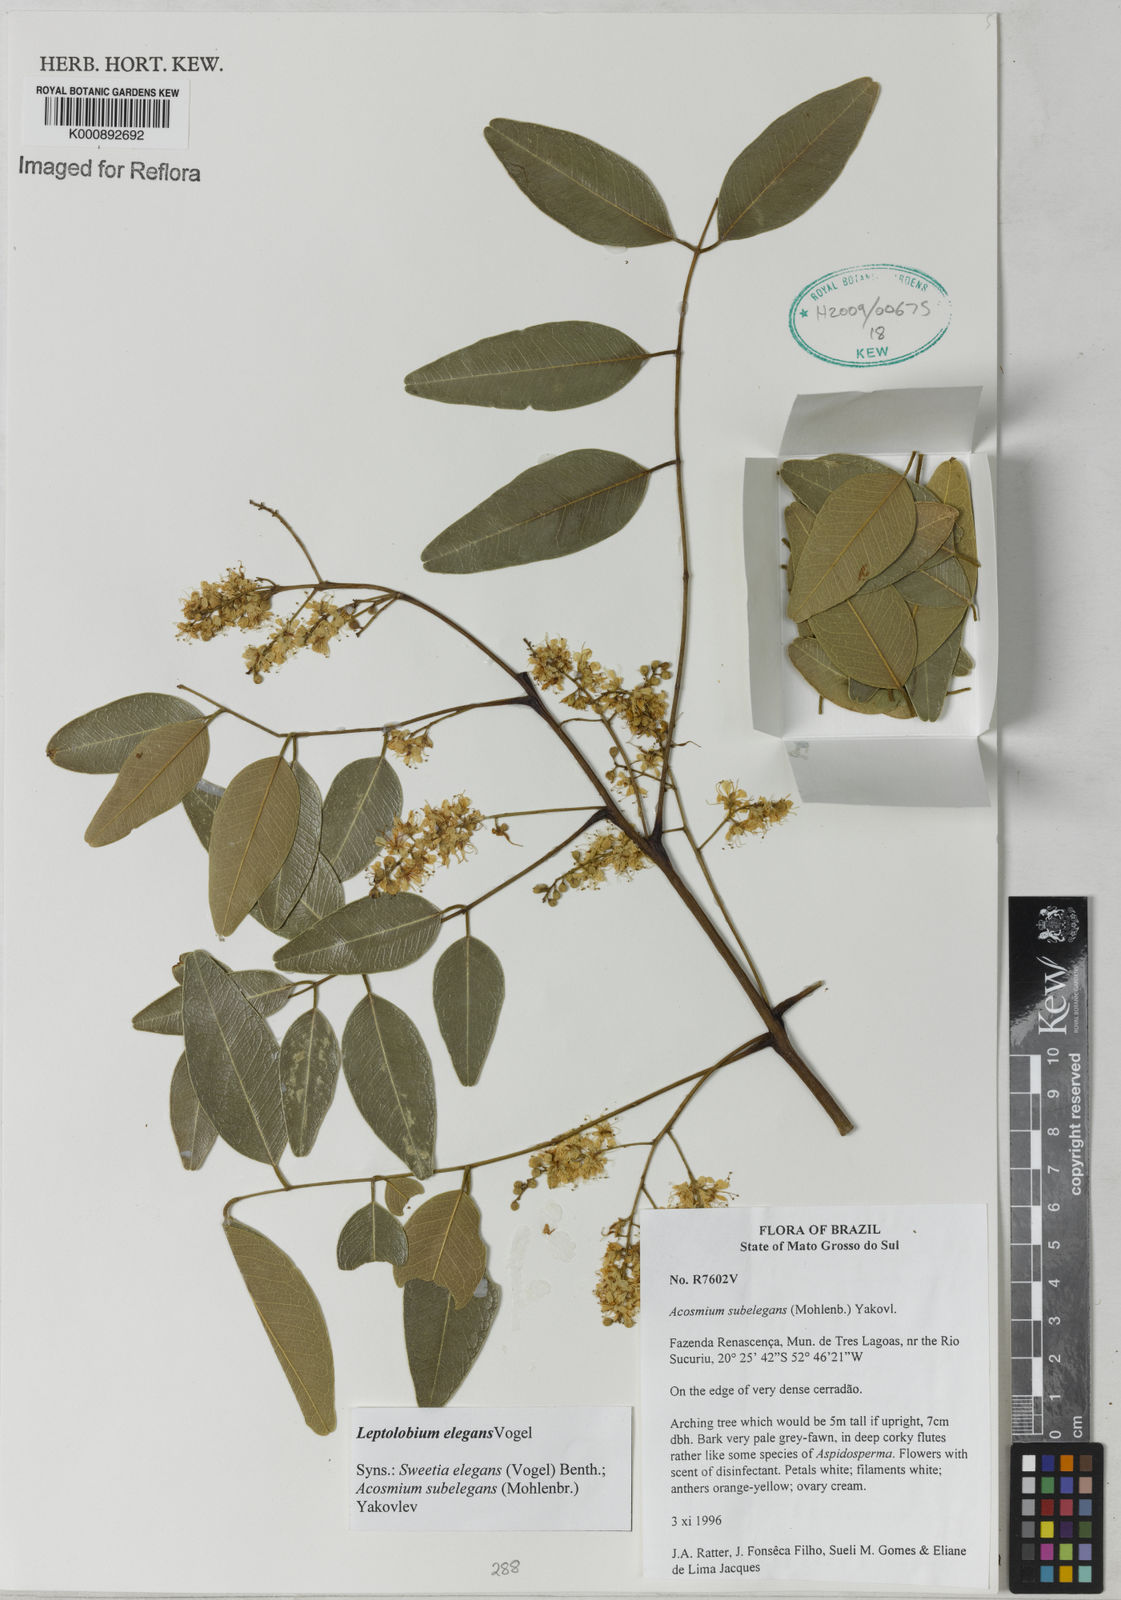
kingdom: Plantae
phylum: Tracheophyta
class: Magnoliopsida
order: Fabales
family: Fabaceae
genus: Leptolobium
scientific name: Leptolobium elegans
